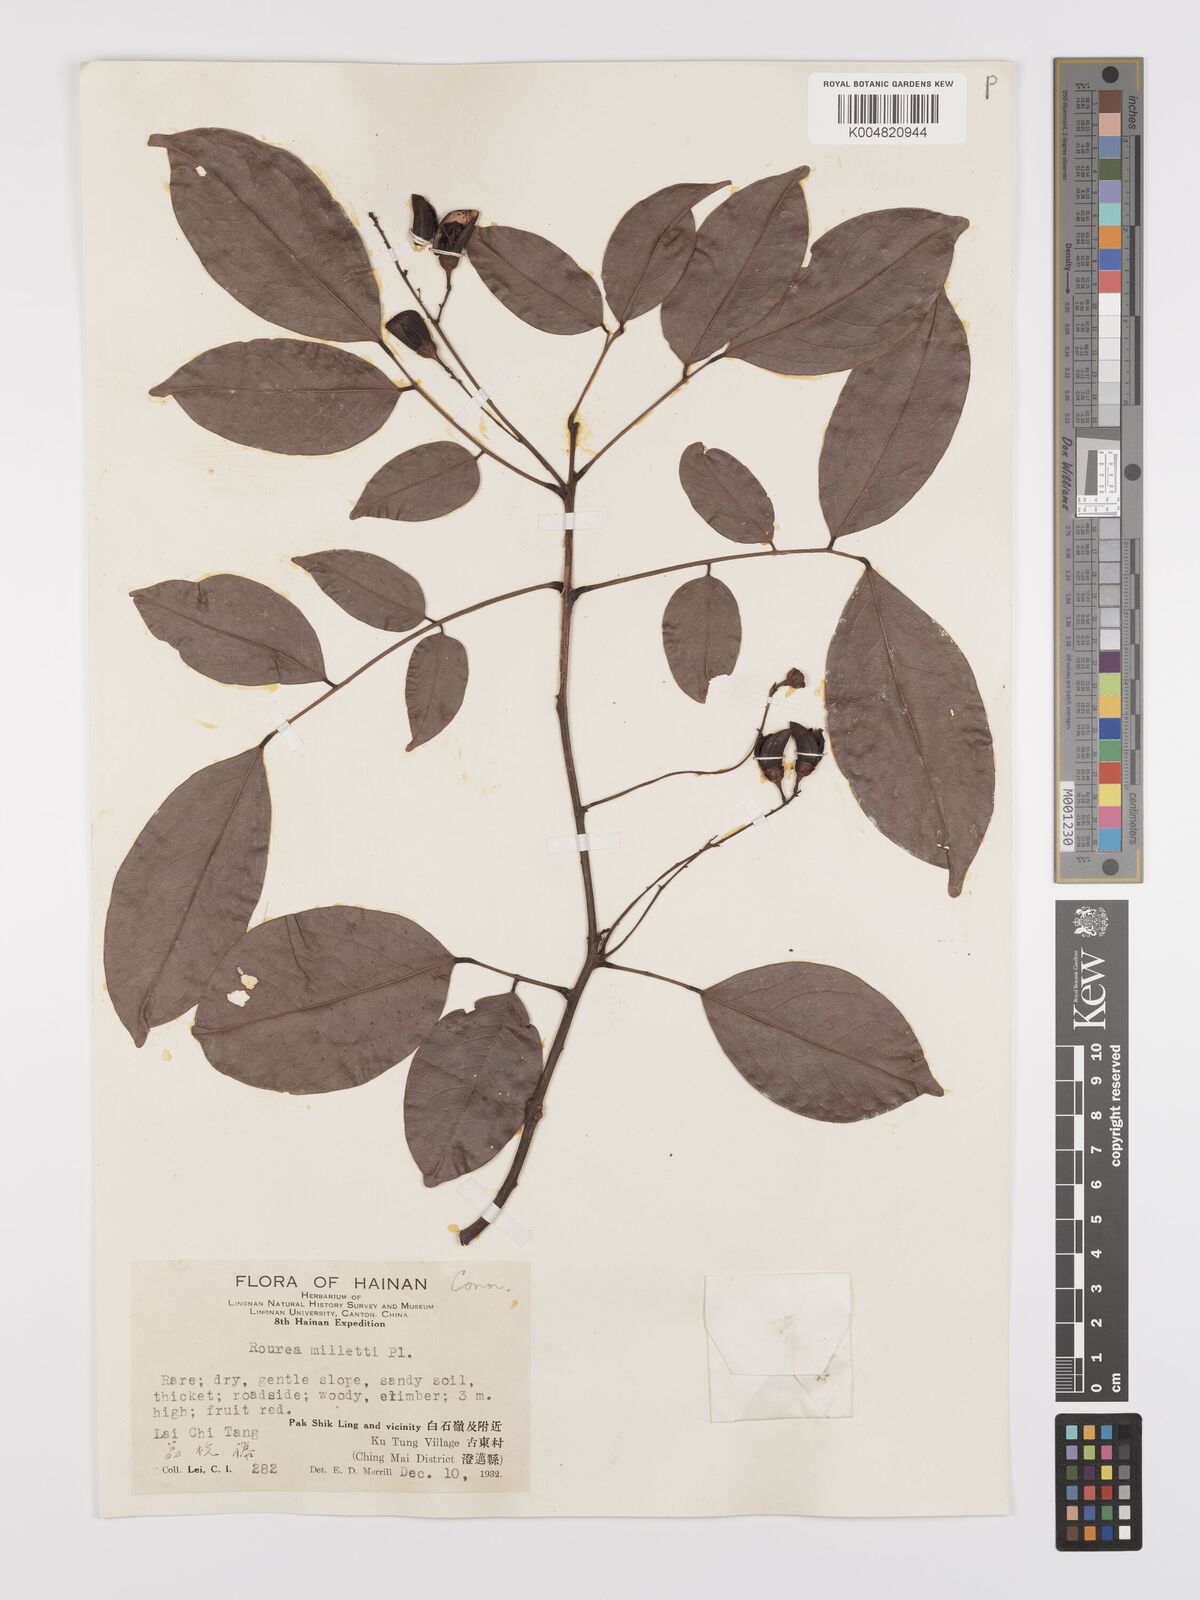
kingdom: Plantae
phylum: Tracheophyta
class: Magnoliopsida
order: Oxalidales
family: Connaraceae
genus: Rourea
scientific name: Rourea
